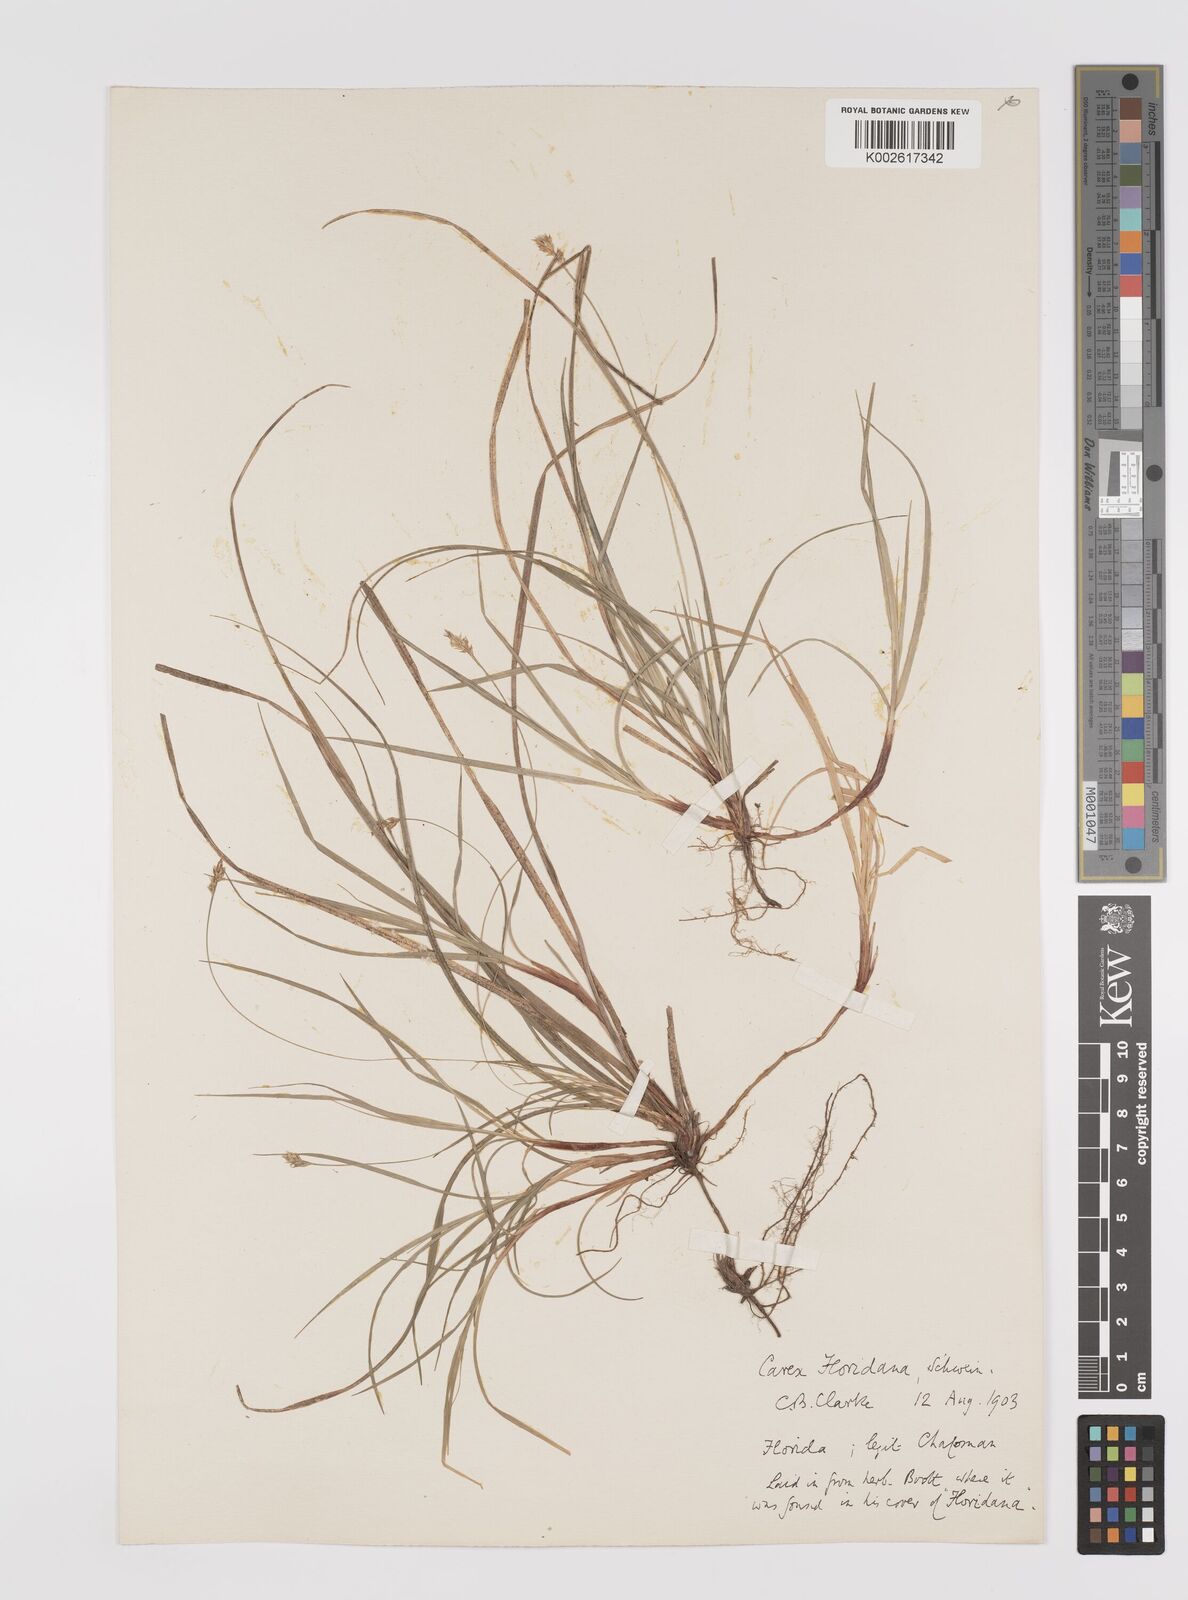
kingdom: Plantae
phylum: Tracheophyta
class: Liliopsida
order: Poales
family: Cyperaceae
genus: Carex
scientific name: Carex floridana
